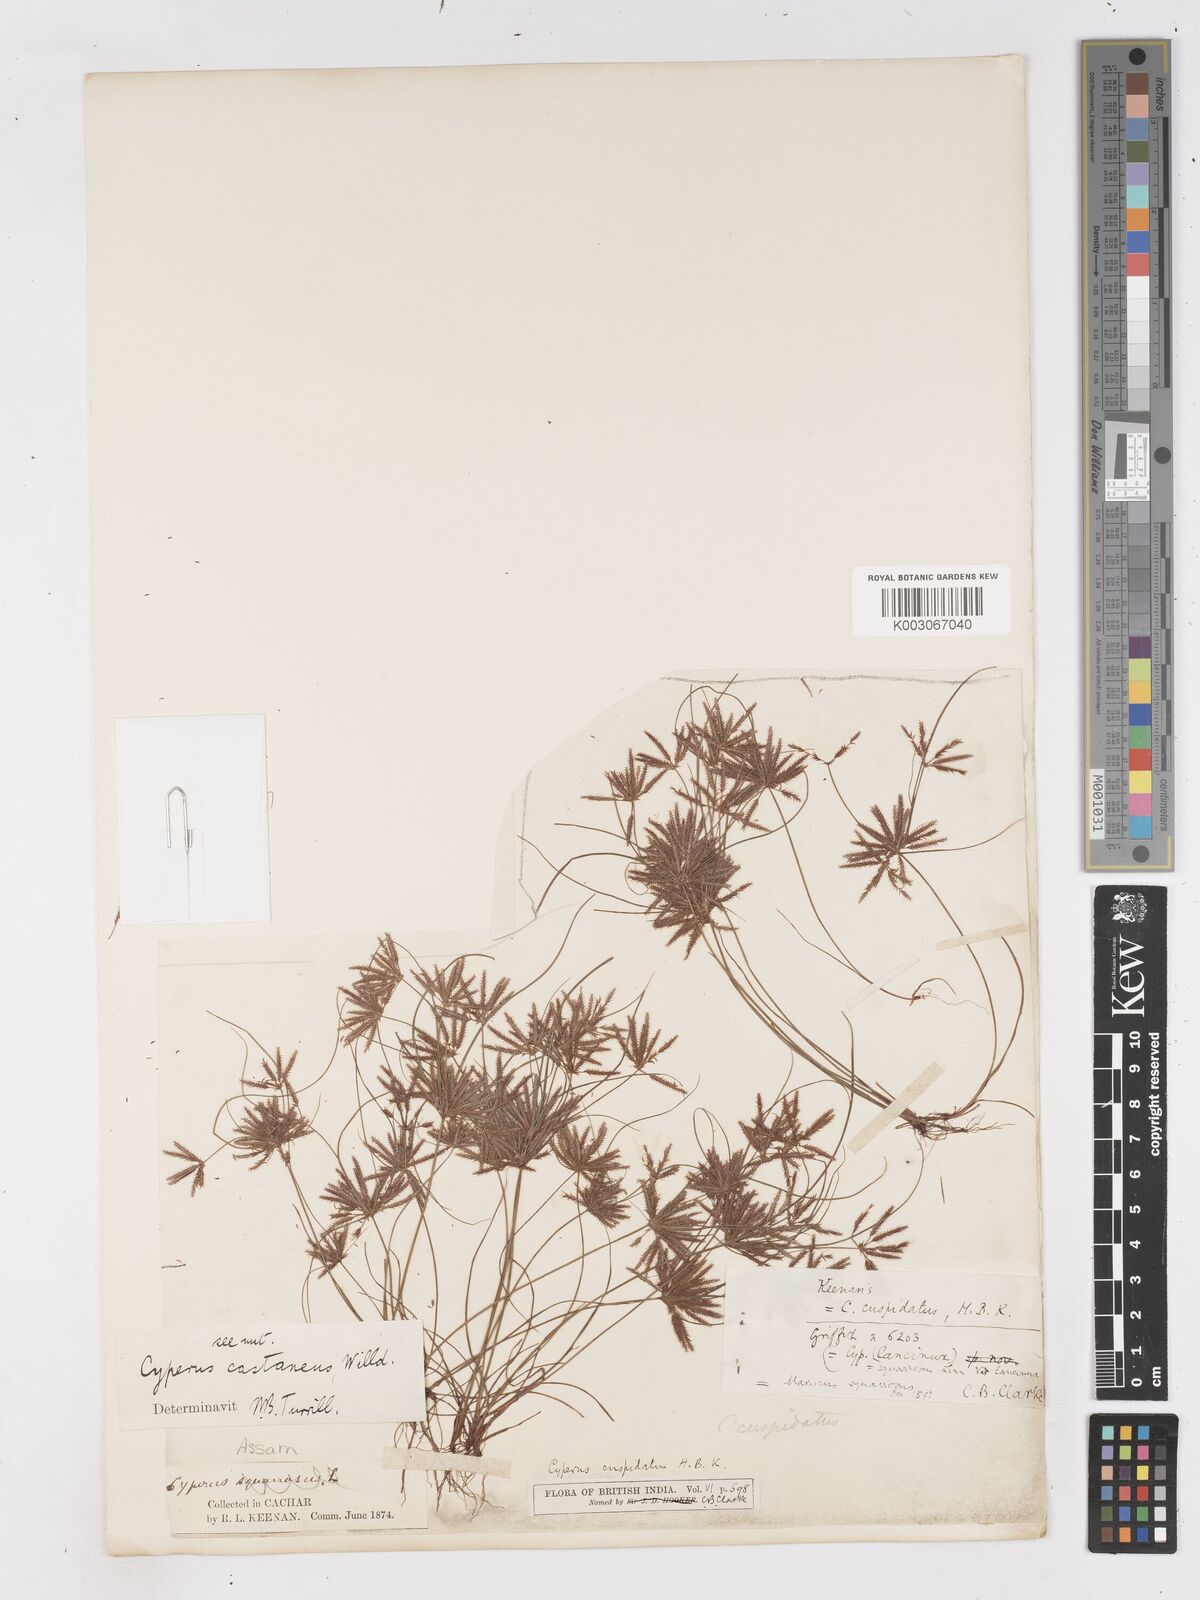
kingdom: Plantae
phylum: Tracheophyta
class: Liliopsida
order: Poales
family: Cyperaceae
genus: Cyperus
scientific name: Cyperus castaneus
